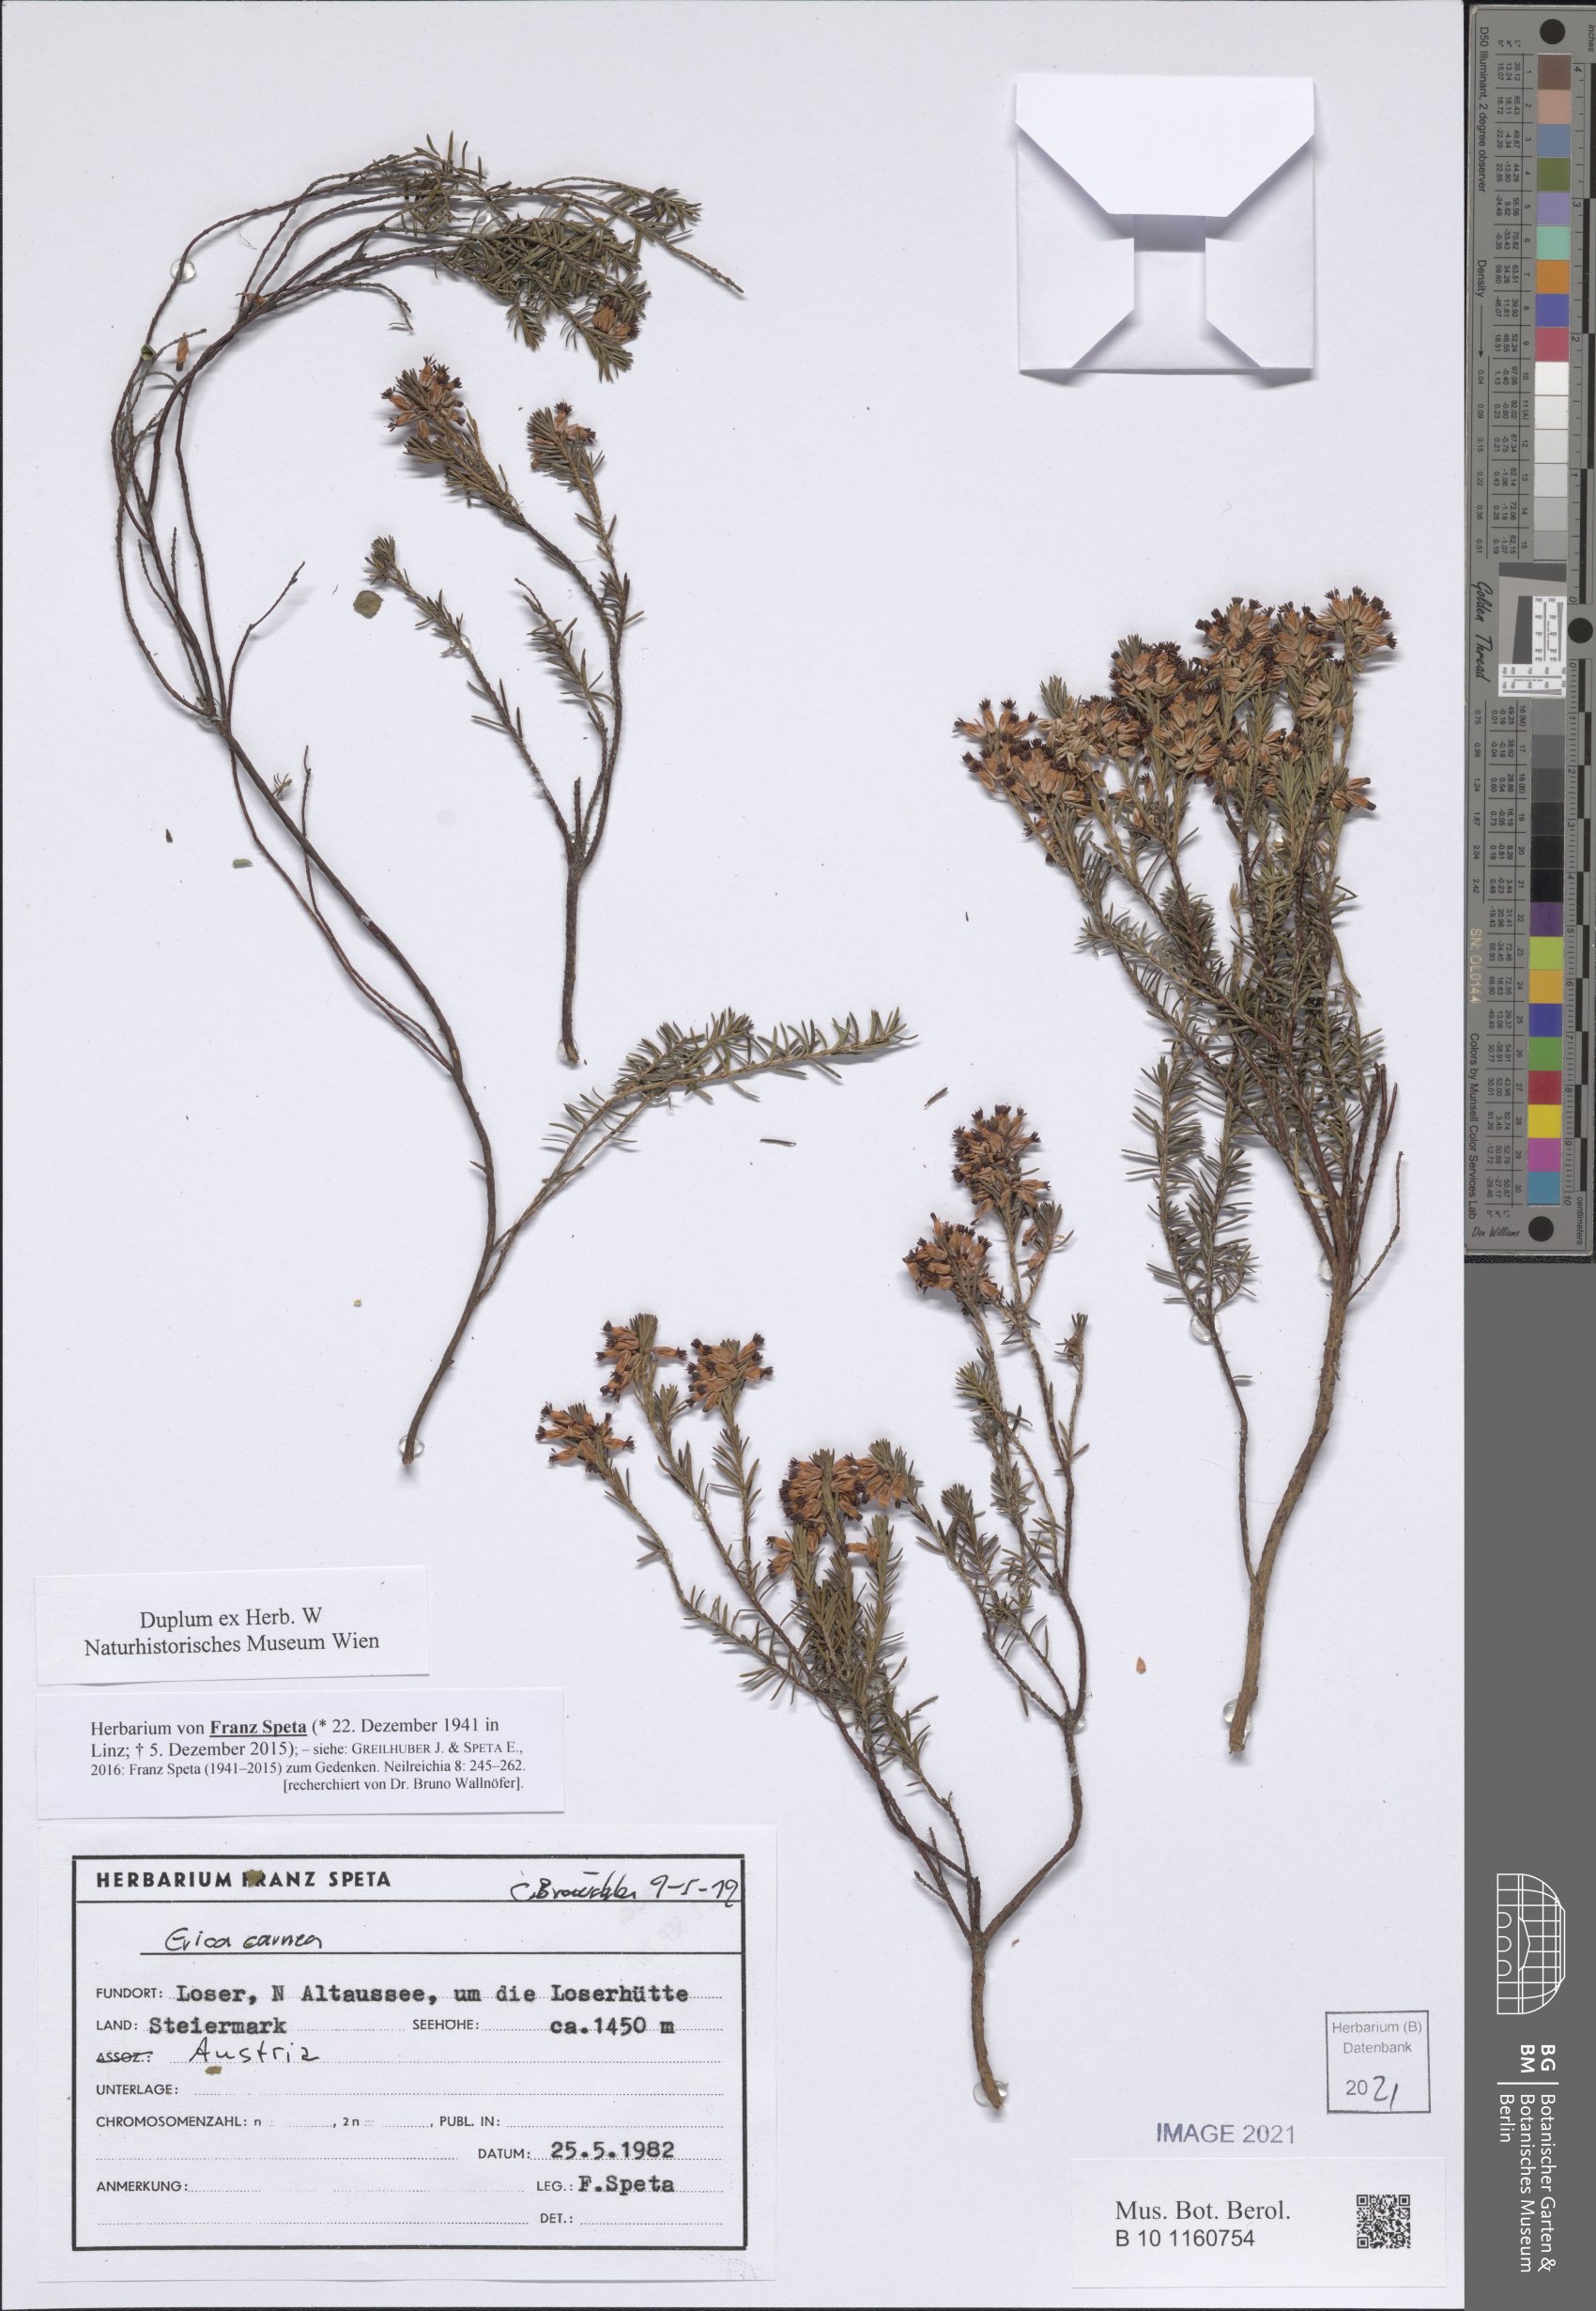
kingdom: Plantae
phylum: Tracheophyta
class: Magnoliopsida
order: Ericales
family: Ericaceae
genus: Erica
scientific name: Erica carnea
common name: Winter heath
